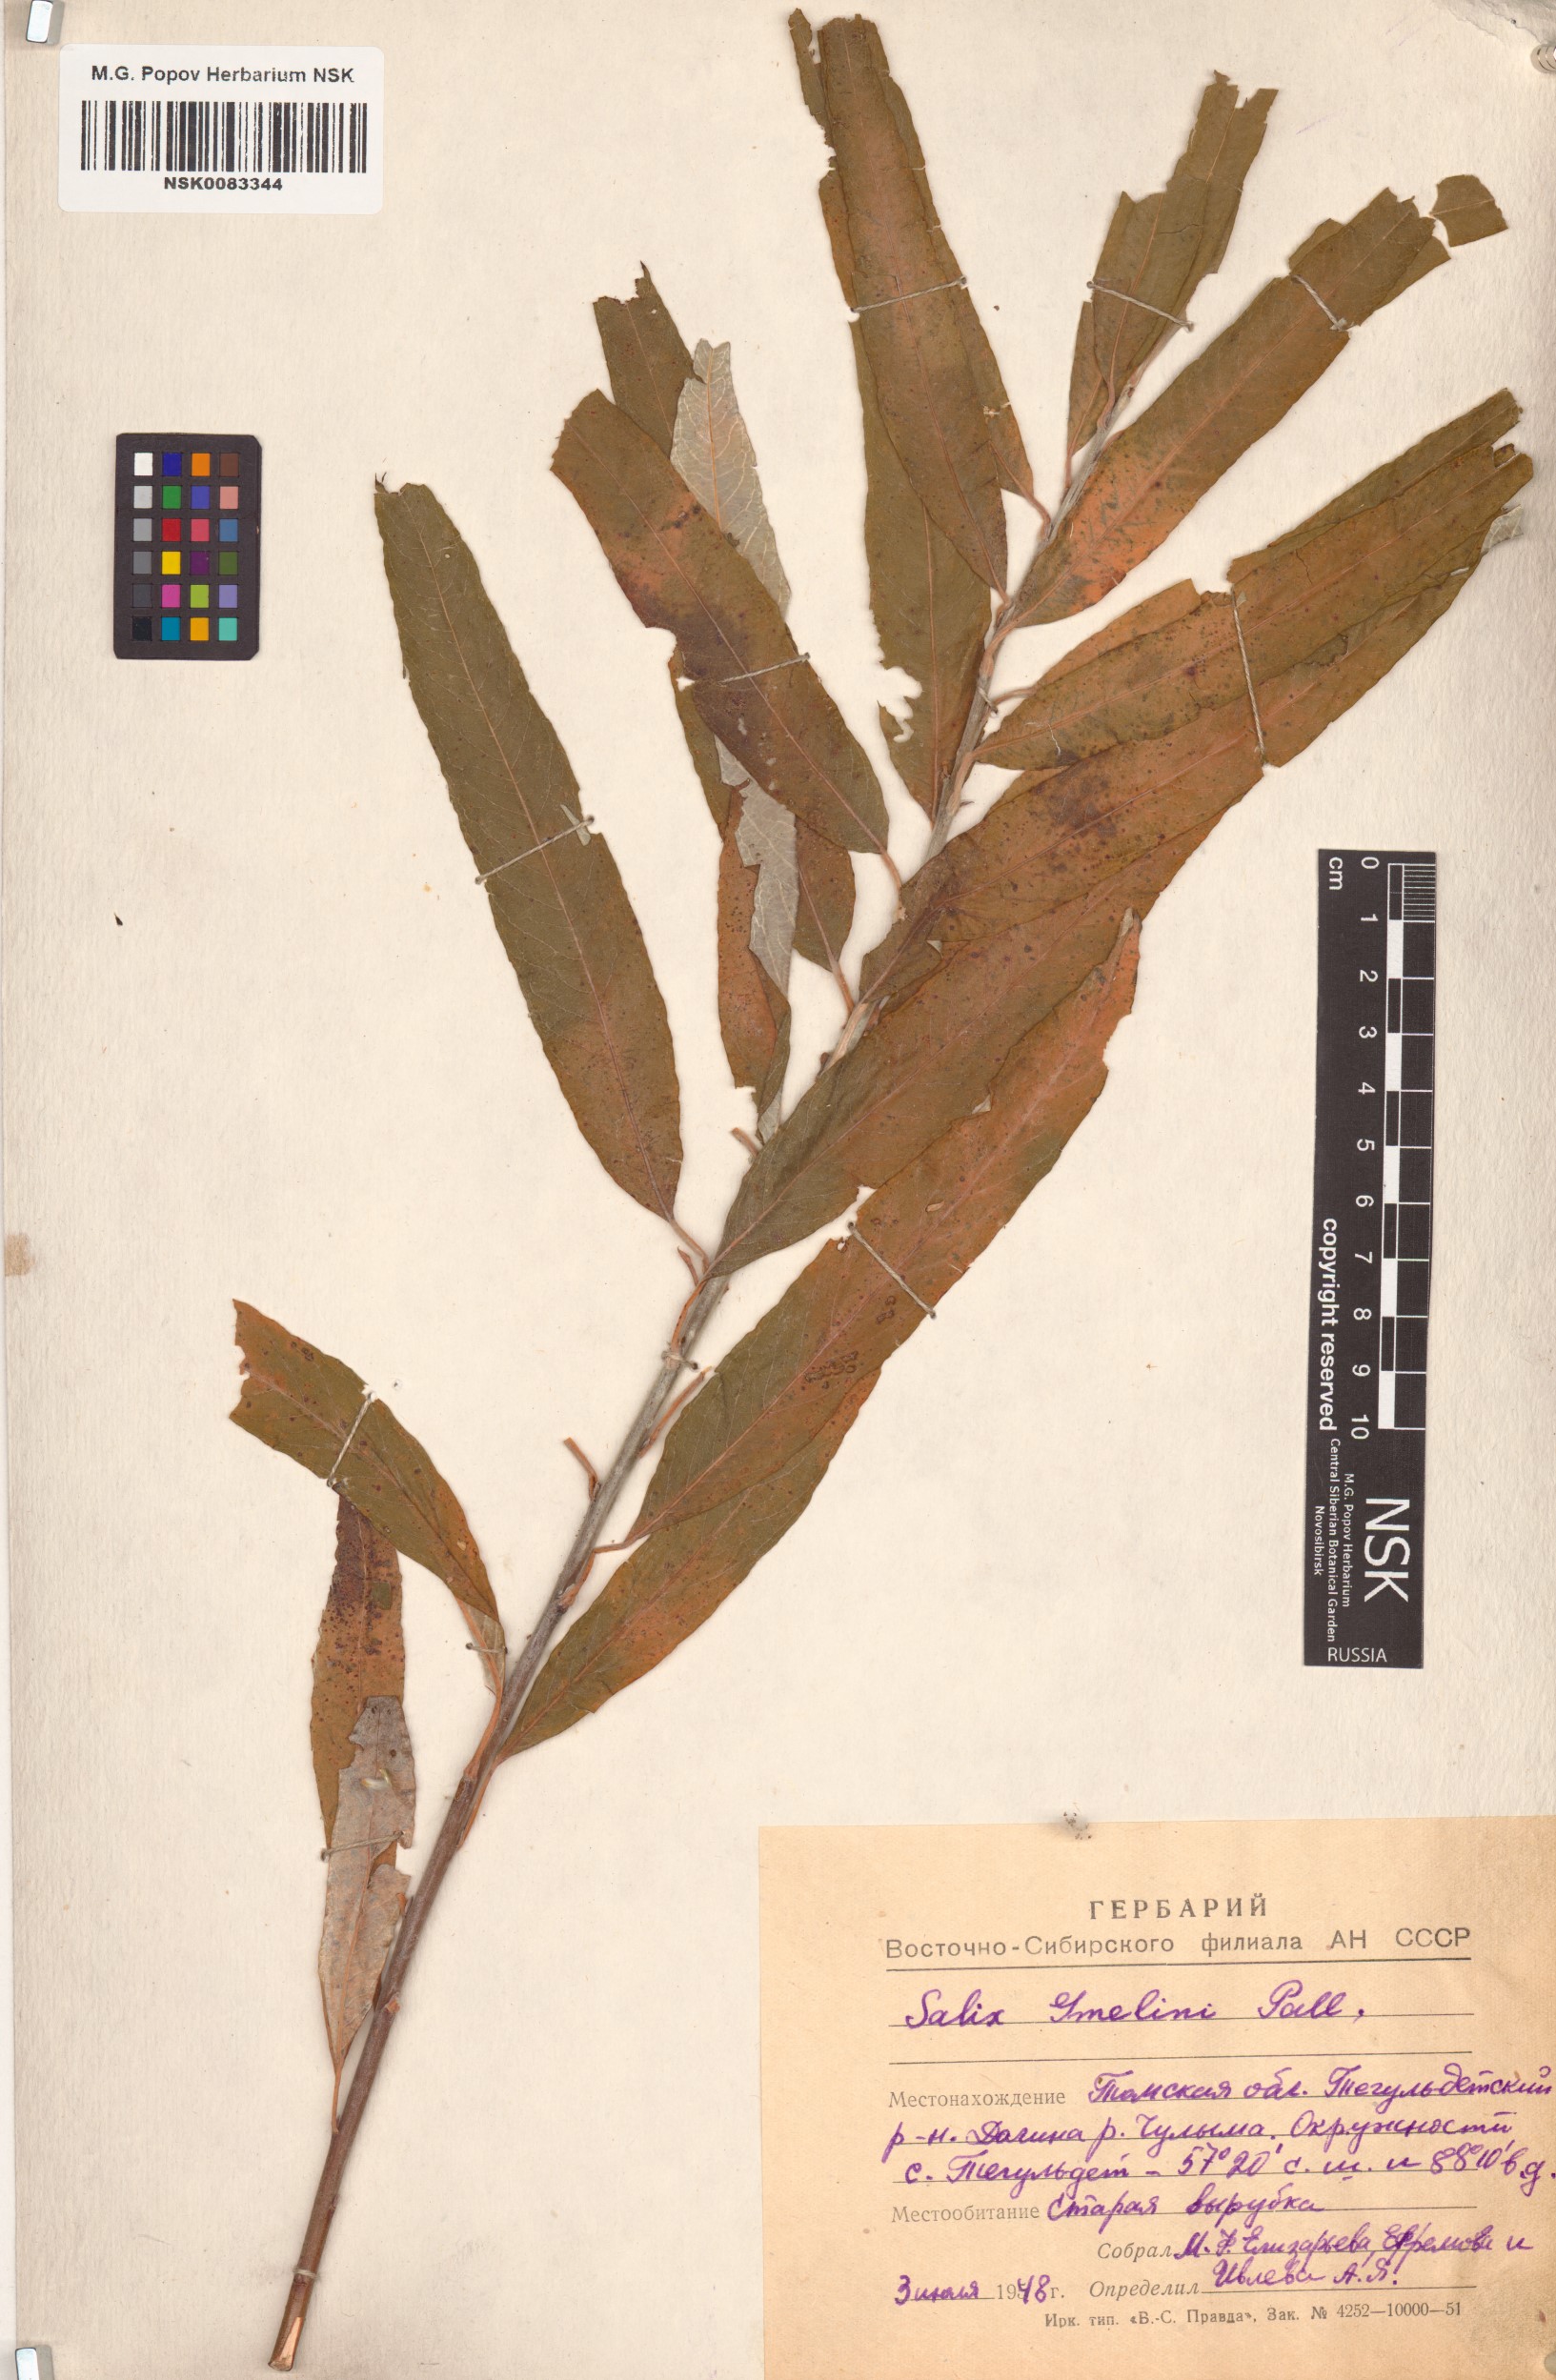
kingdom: Plantae
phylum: Tracheophyta
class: Magnoliopsida
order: Malpighiales
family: Salicaceae
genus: Salix
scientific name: Salix gmelinii
